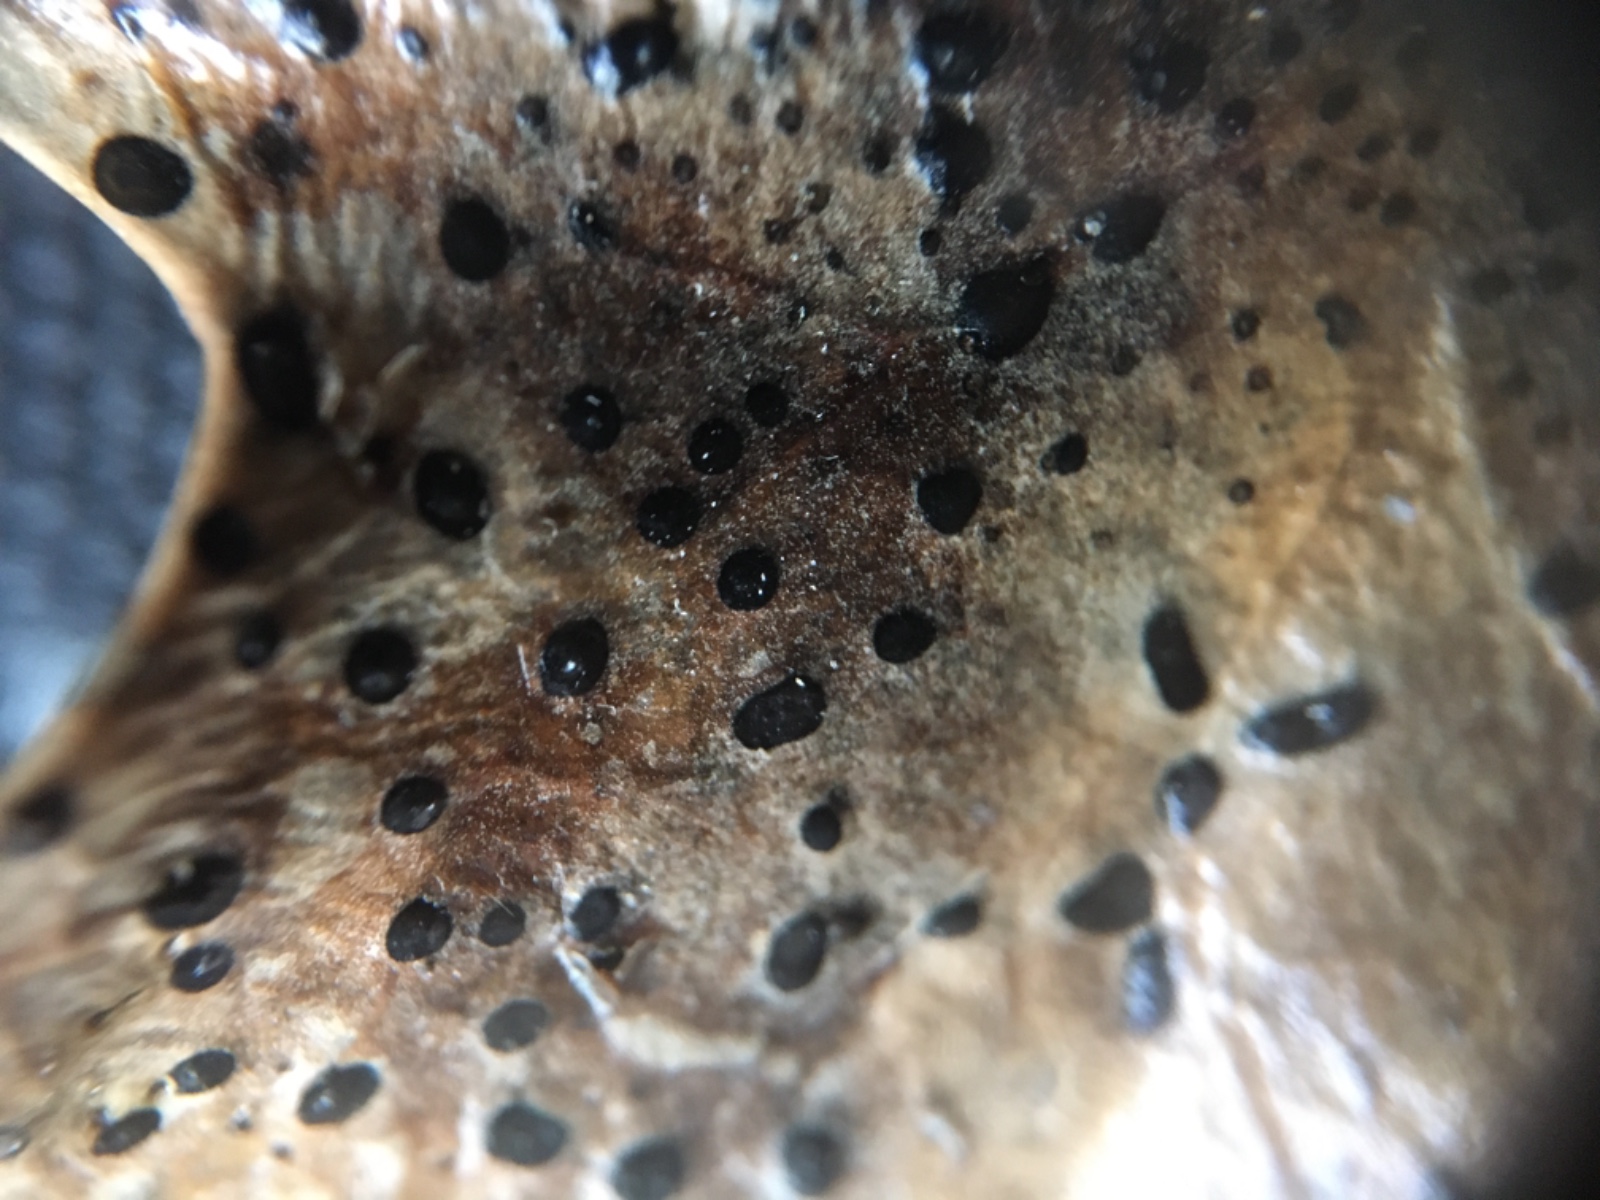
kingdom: Fungi
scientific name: Fungi
